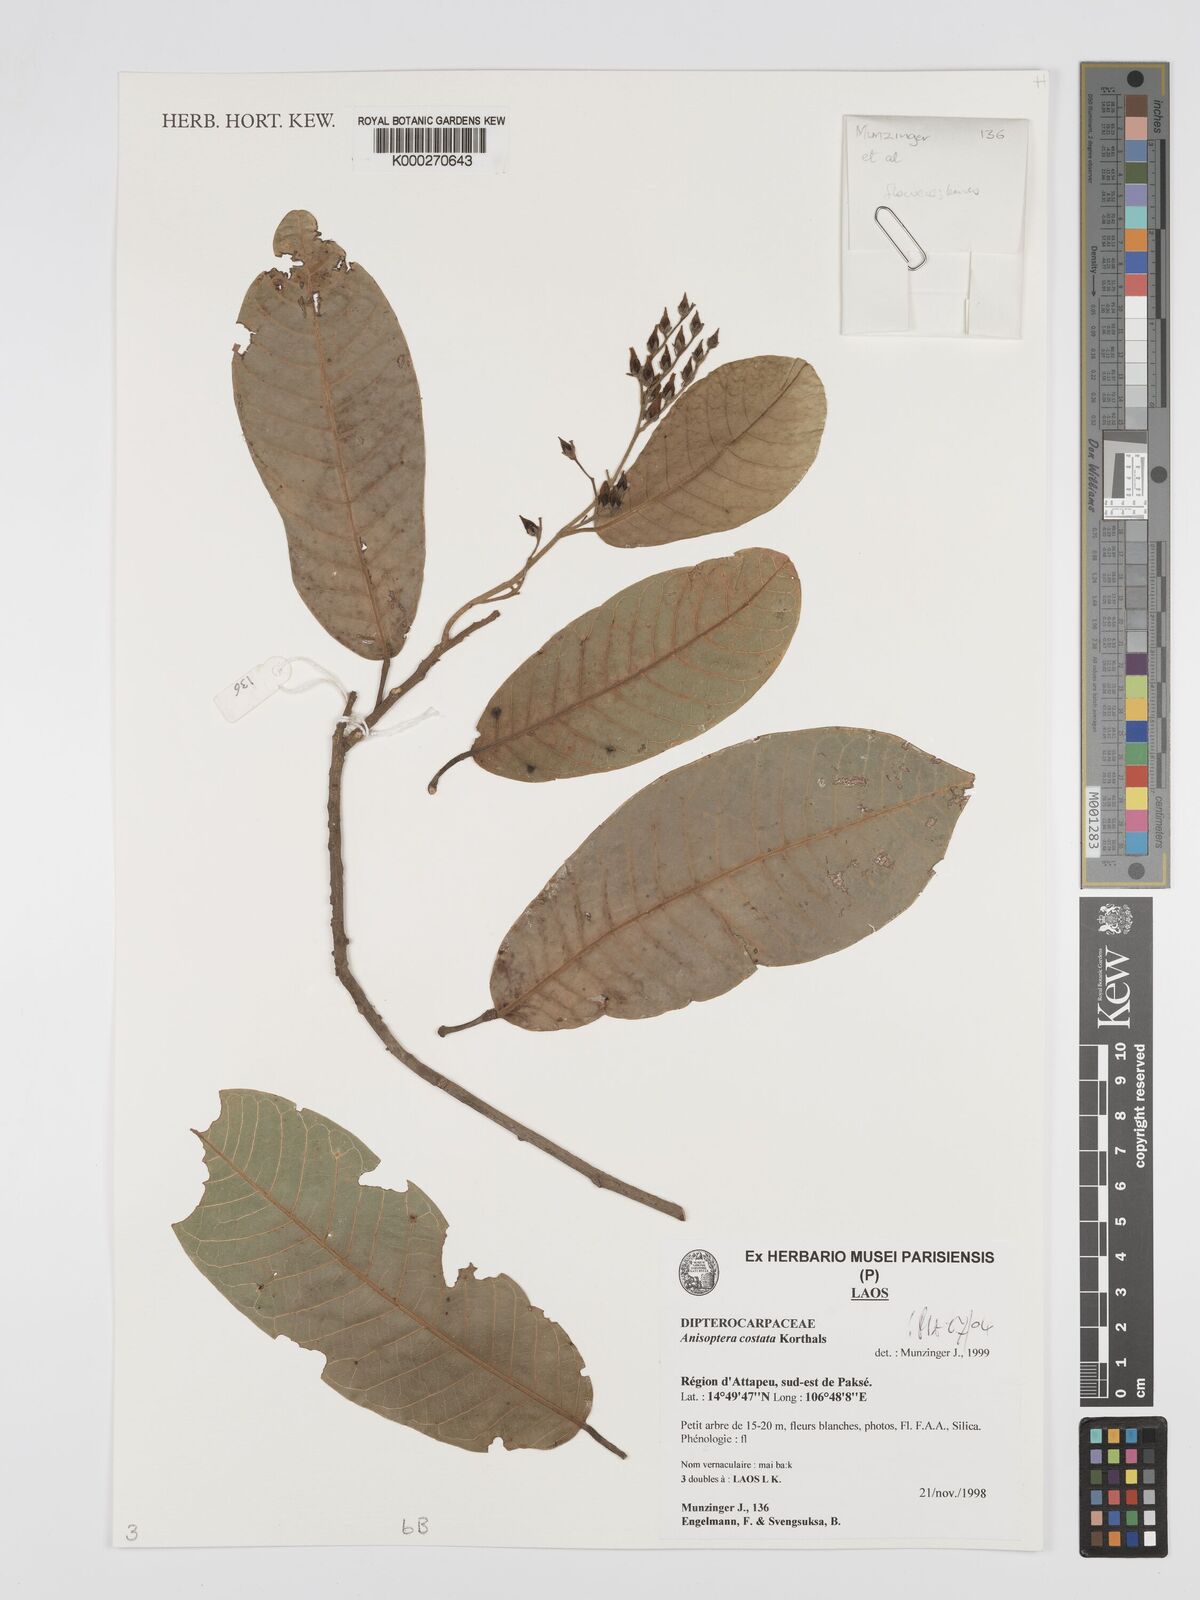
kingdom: Plantae
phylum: Tracheophyta
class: Magnoliopsida
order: Malvales
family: Dipterocarpaceae
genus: Anisoptera
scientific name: Anisoptera costata
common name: Mersawa
